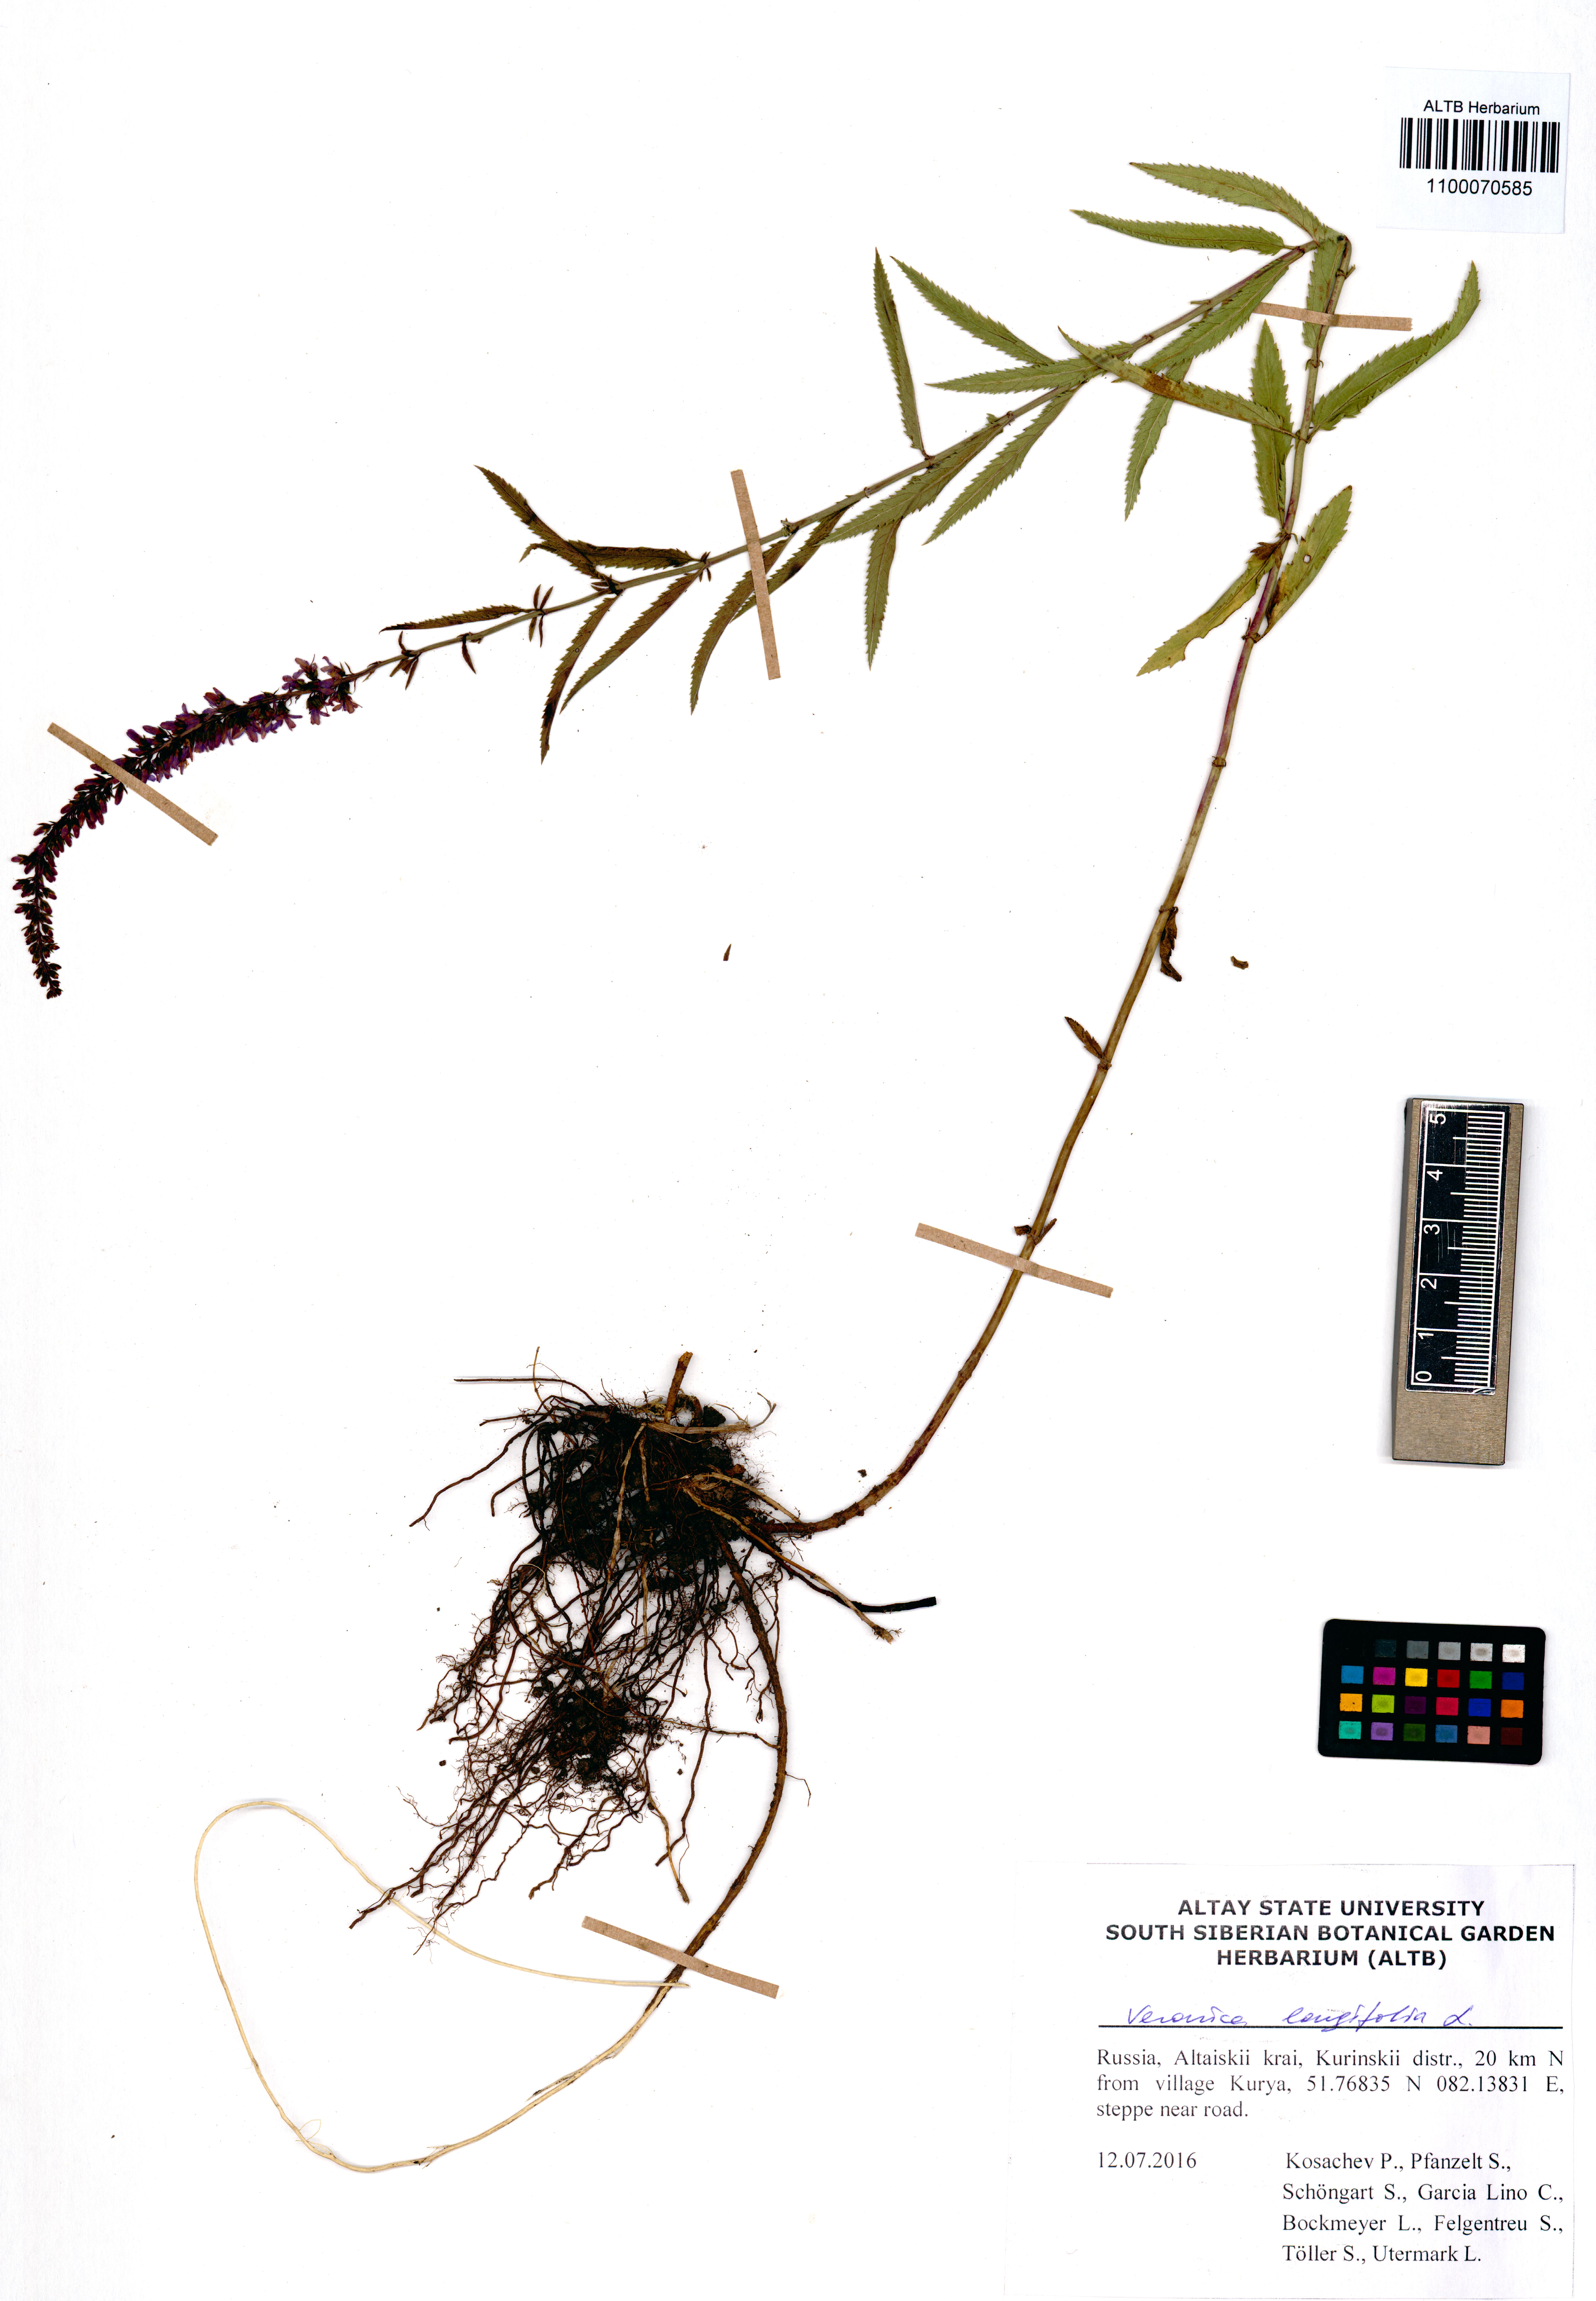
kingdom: Plantae
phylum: Tracheophyta
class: Magnoliopsida
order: Lamiales
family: Plantaginaceae
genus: Veronica
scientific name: Veronica longifolia
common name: Garden speedwell
